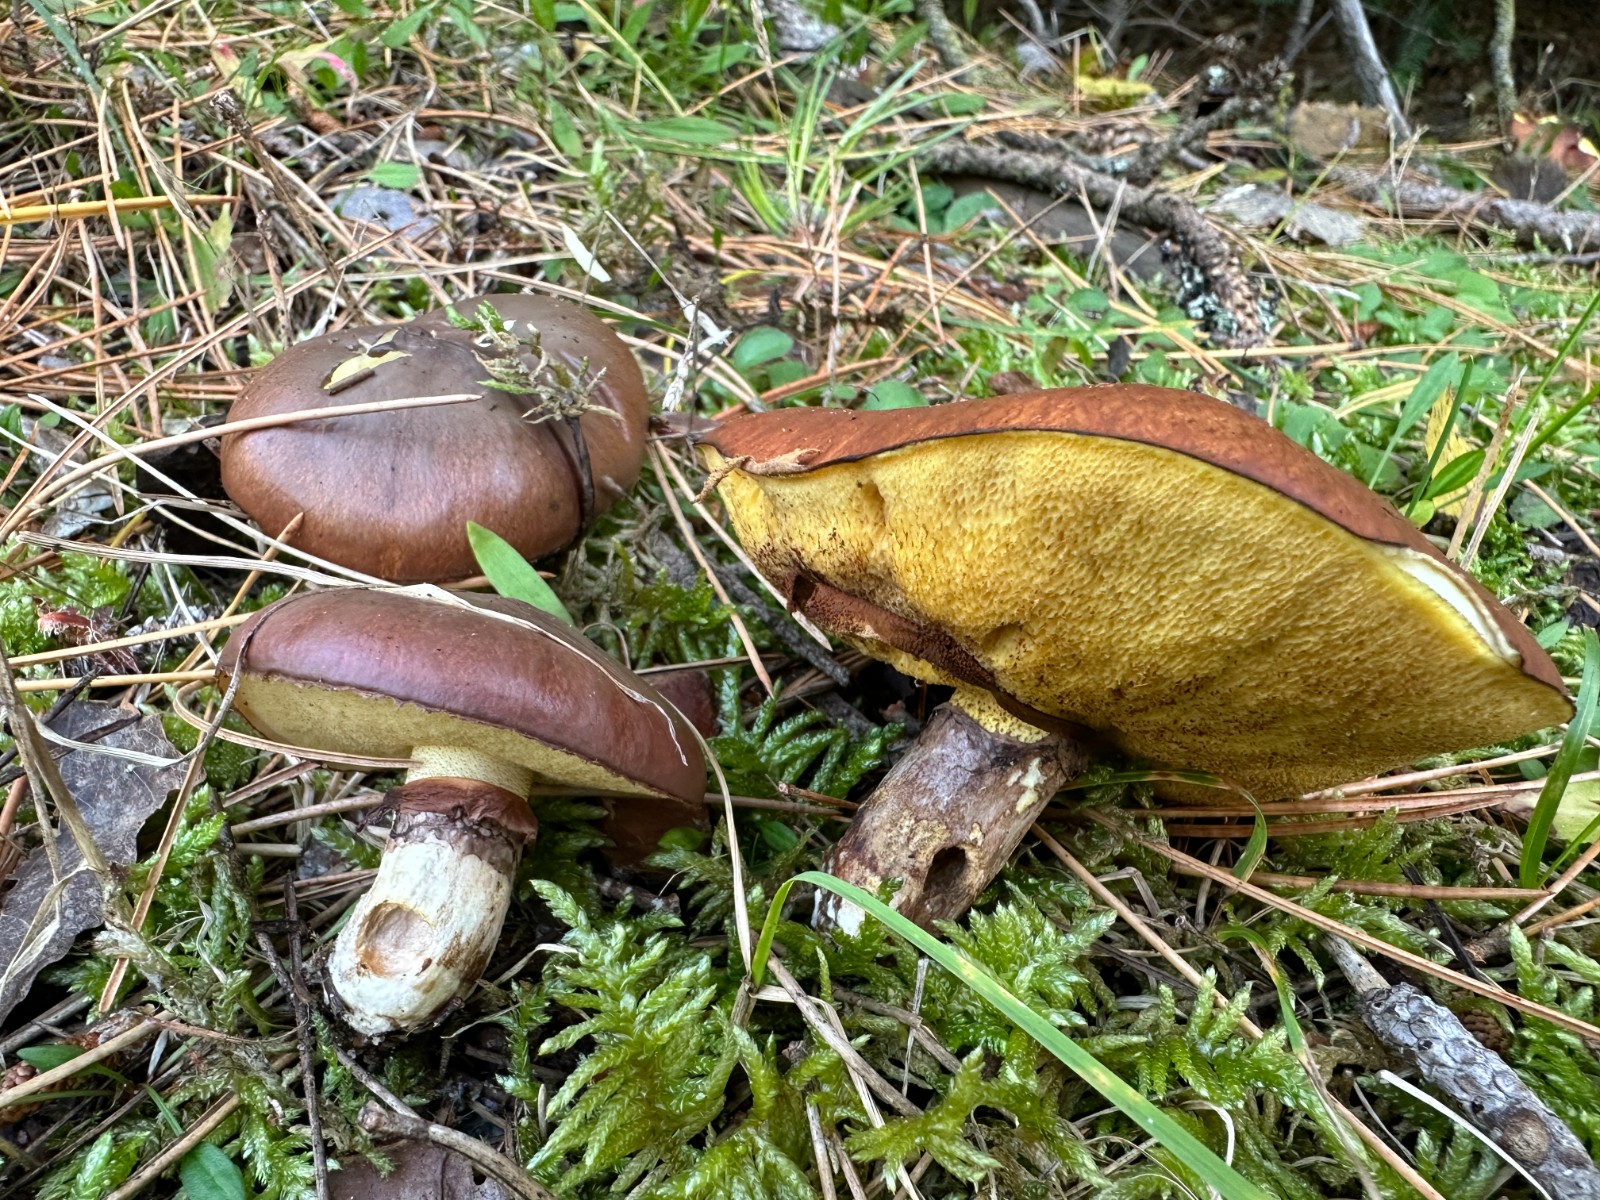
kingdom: Fungi
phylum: Basidiomycota
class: Agaricomycetes
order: Boletales
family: Suillaceae
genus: Suillus
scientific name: Suillus luteus
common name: brungul slimrørhat
